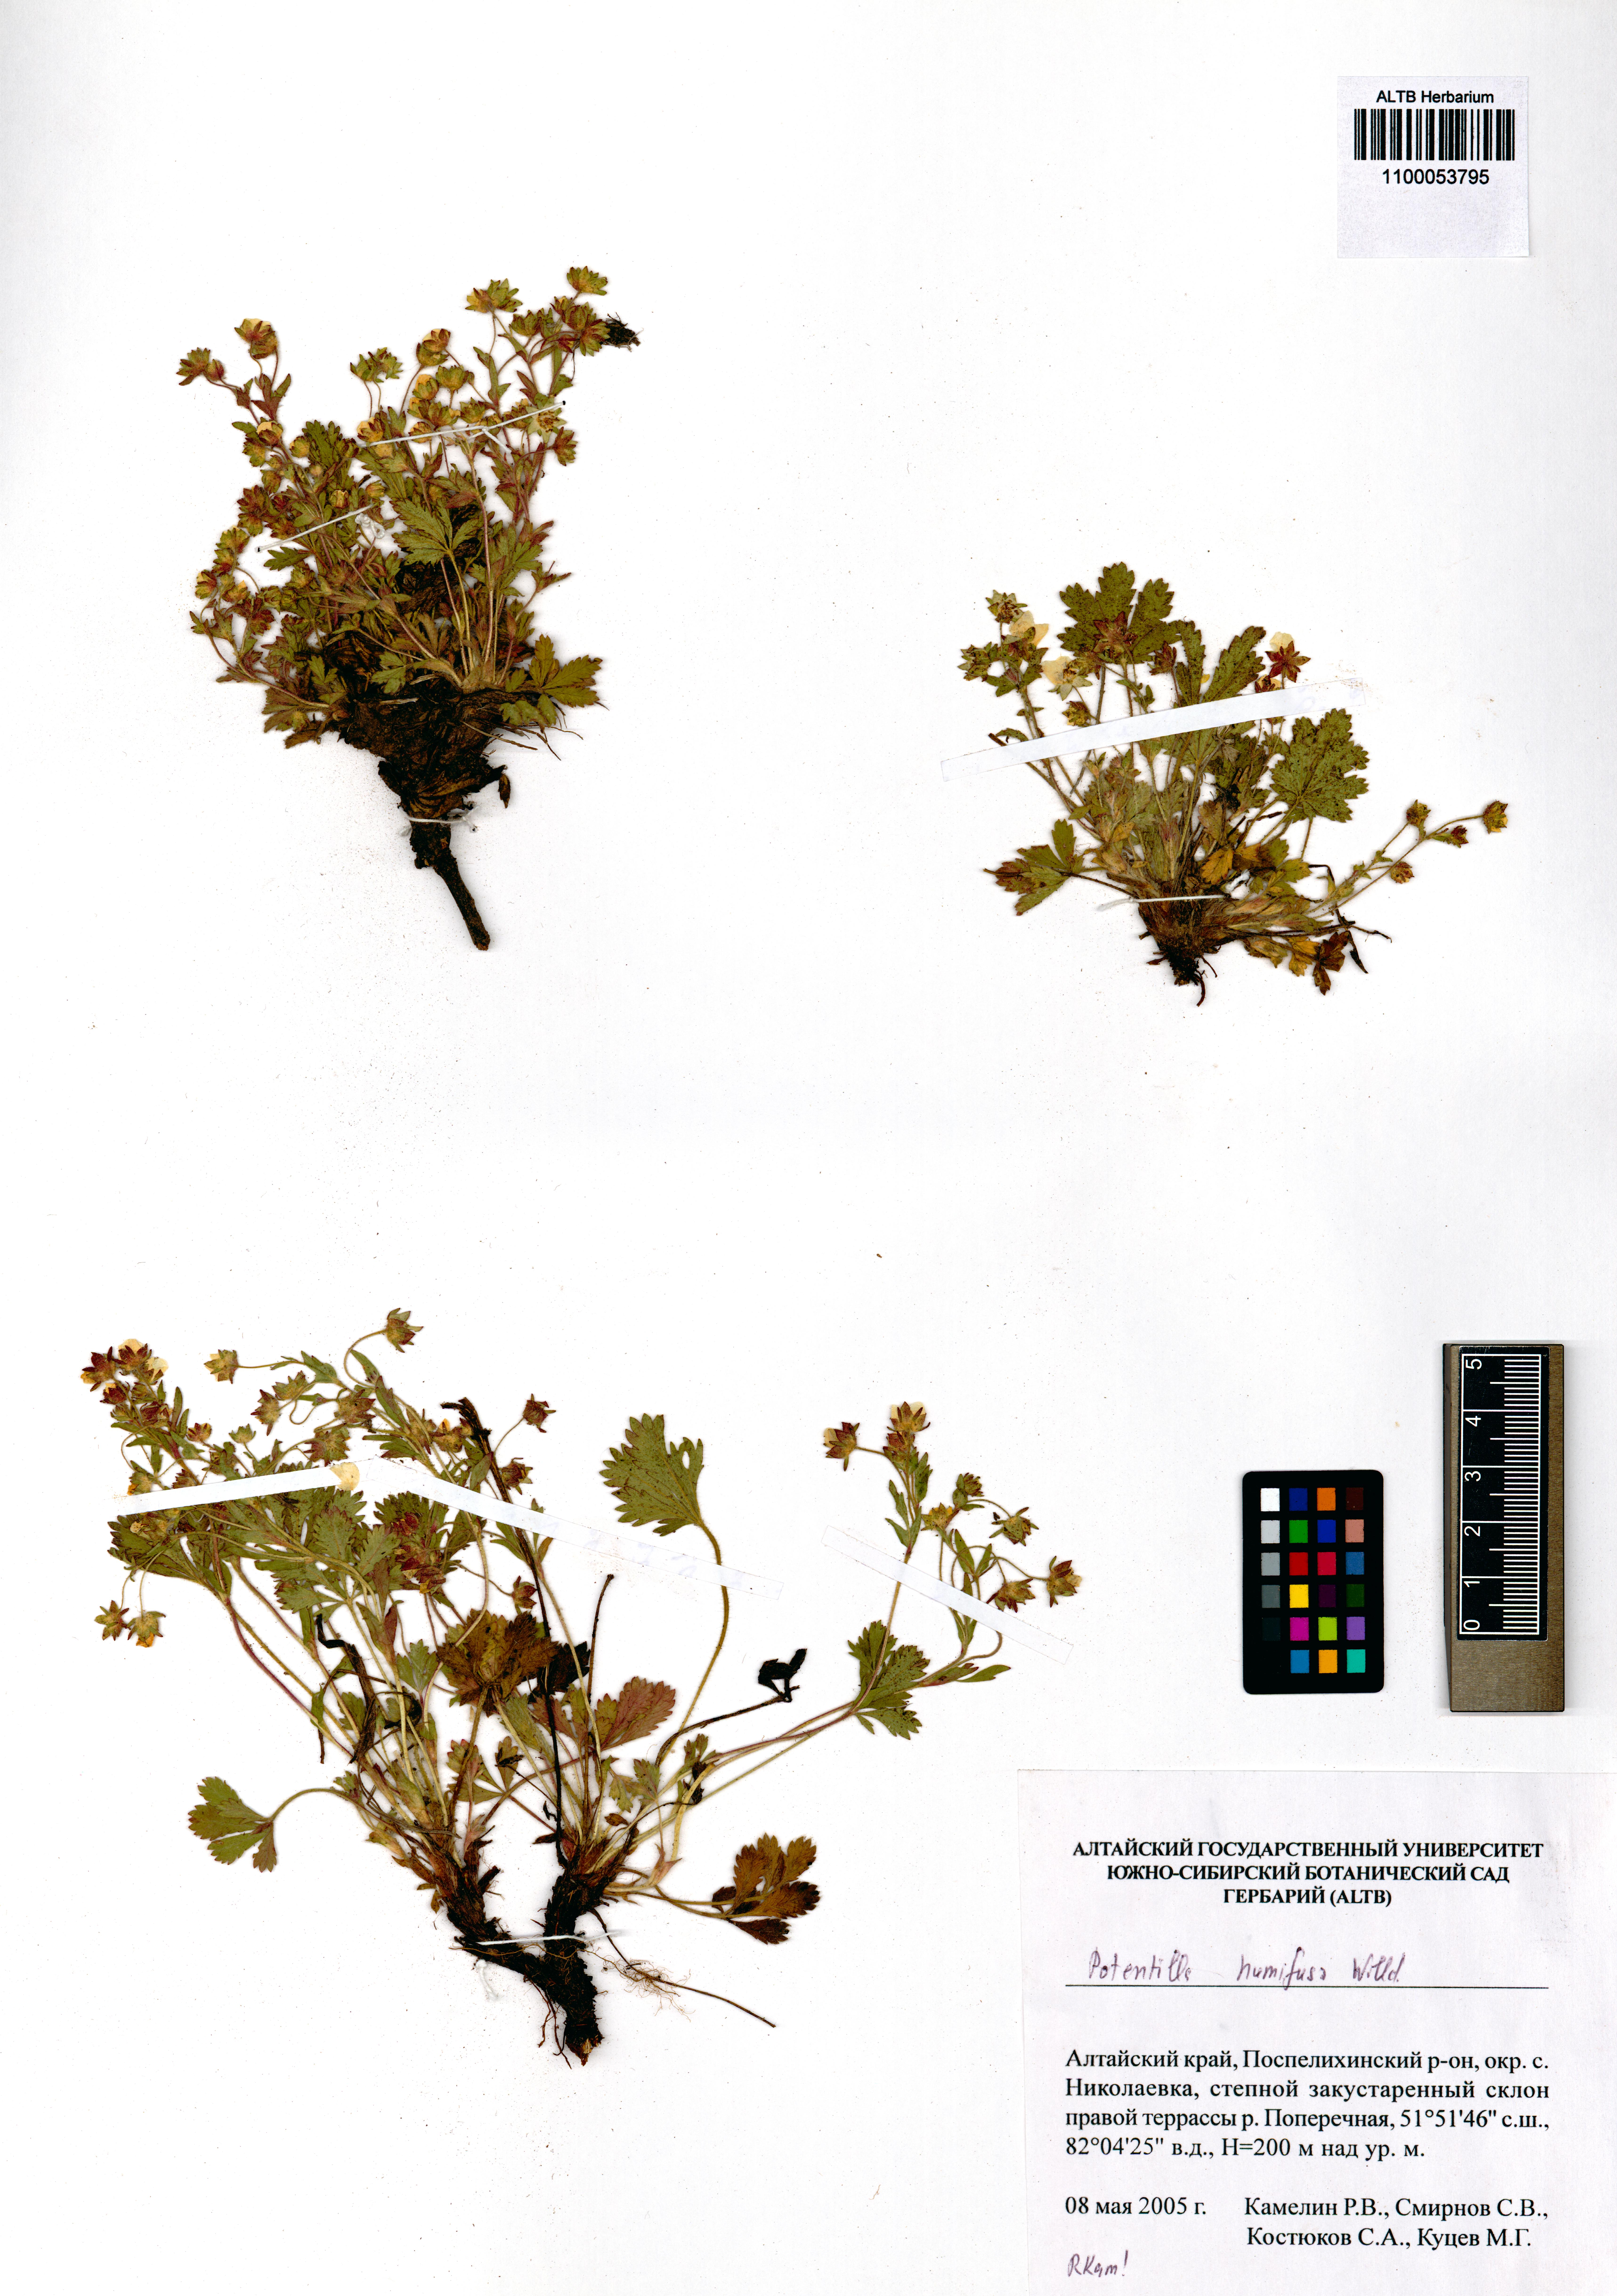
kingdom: Plantae
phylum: Tracheophyta
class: Magnoliopsida
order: Rosales
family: Rosaceae
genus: Potentilla
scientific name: Potentilla humifusa
